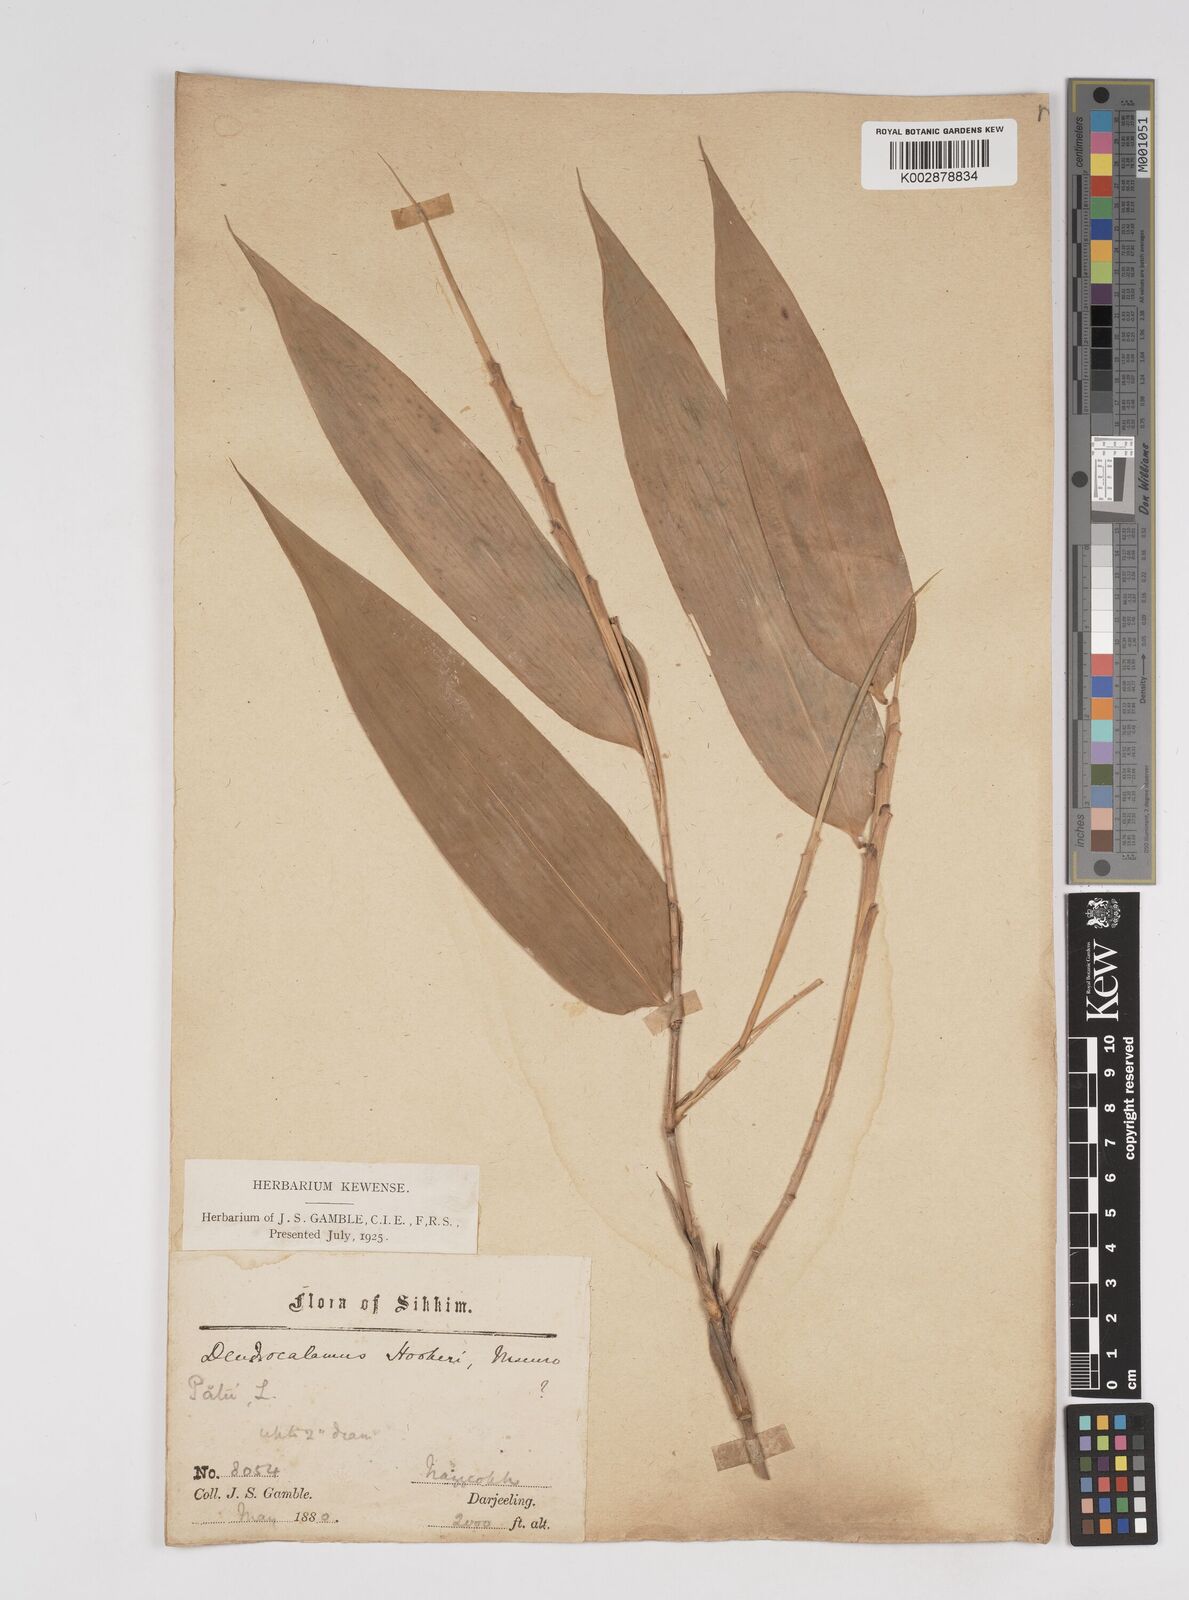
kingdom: Plantae
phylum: Tracheophyta
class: Liliopsida
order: Poales
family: Poaceae
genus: Dendrocalamus
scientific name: Dendrocalamus hookeri
